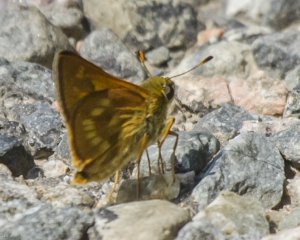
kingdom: Animalia
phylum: Arthropoda
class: Insecta
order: Lepidoptera
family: Hesperiidae
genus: Polites
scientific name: Polites
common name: Long Dash Skipper
